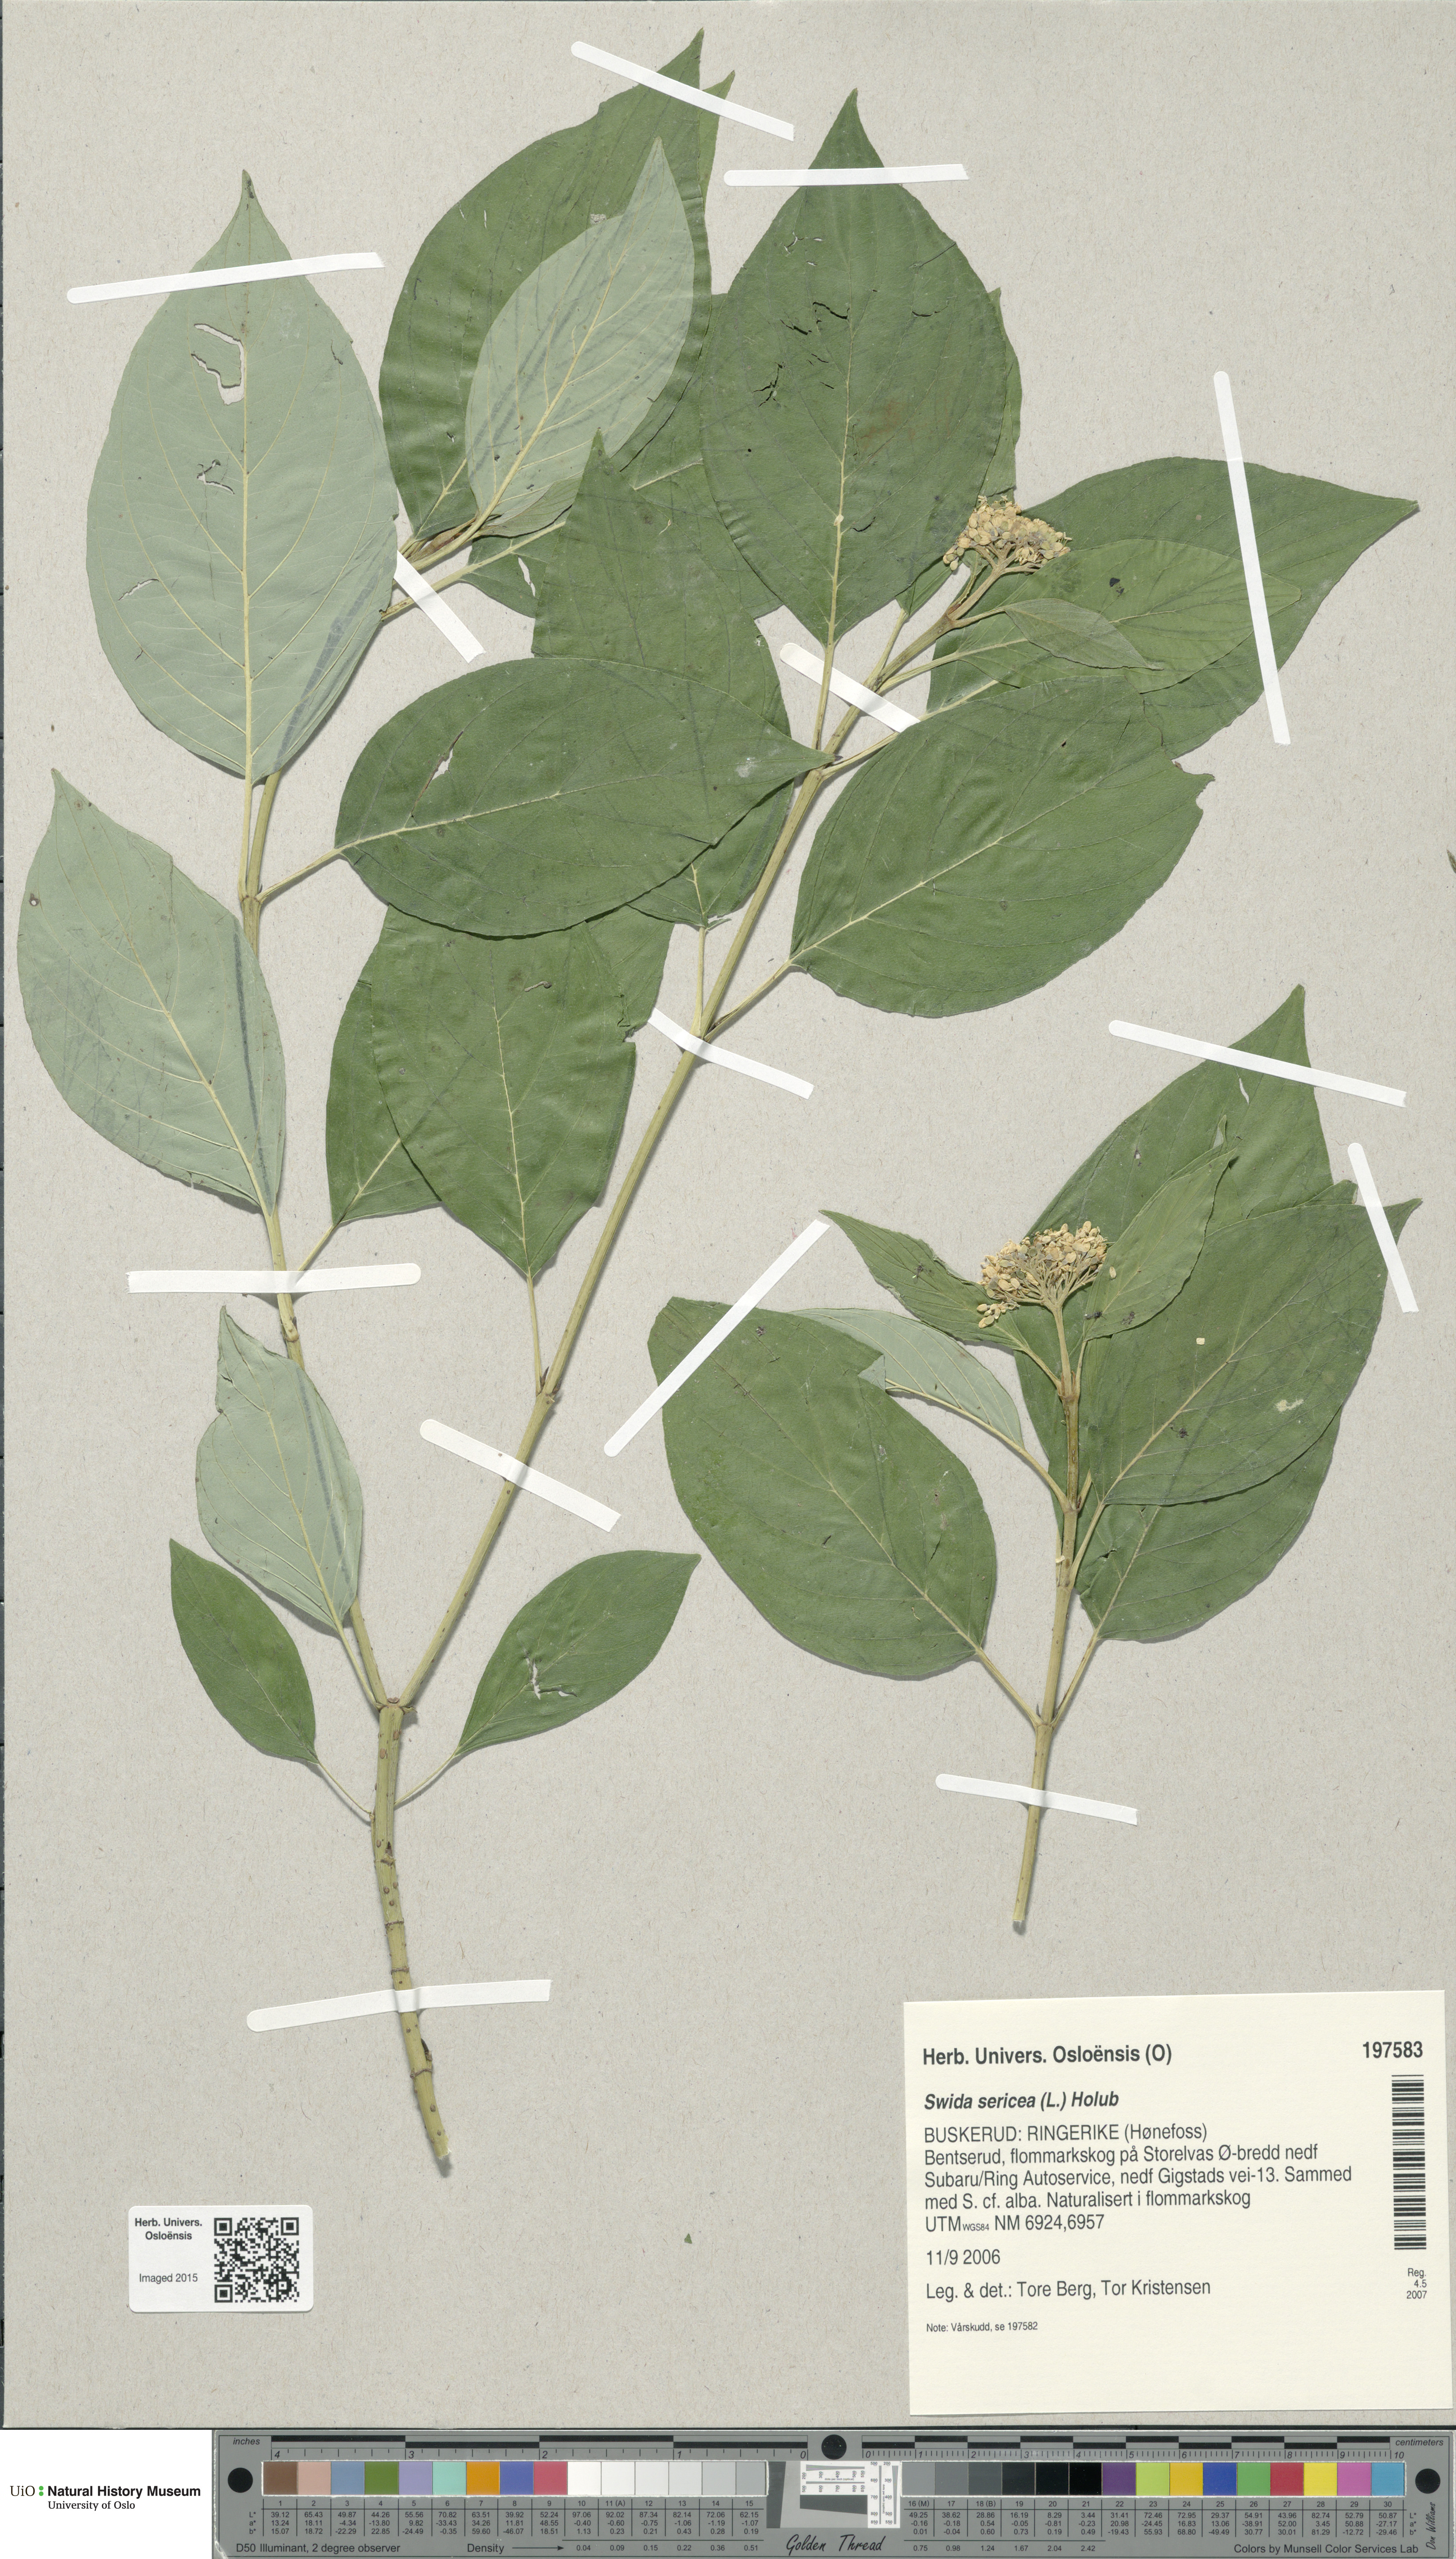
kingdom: Plantae
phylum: Tracheophyta
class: Magnoliopsida
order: Cornales
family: Cornaceae
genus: Cornus
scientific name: Cornus sericea
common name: Red-osier dogwood
